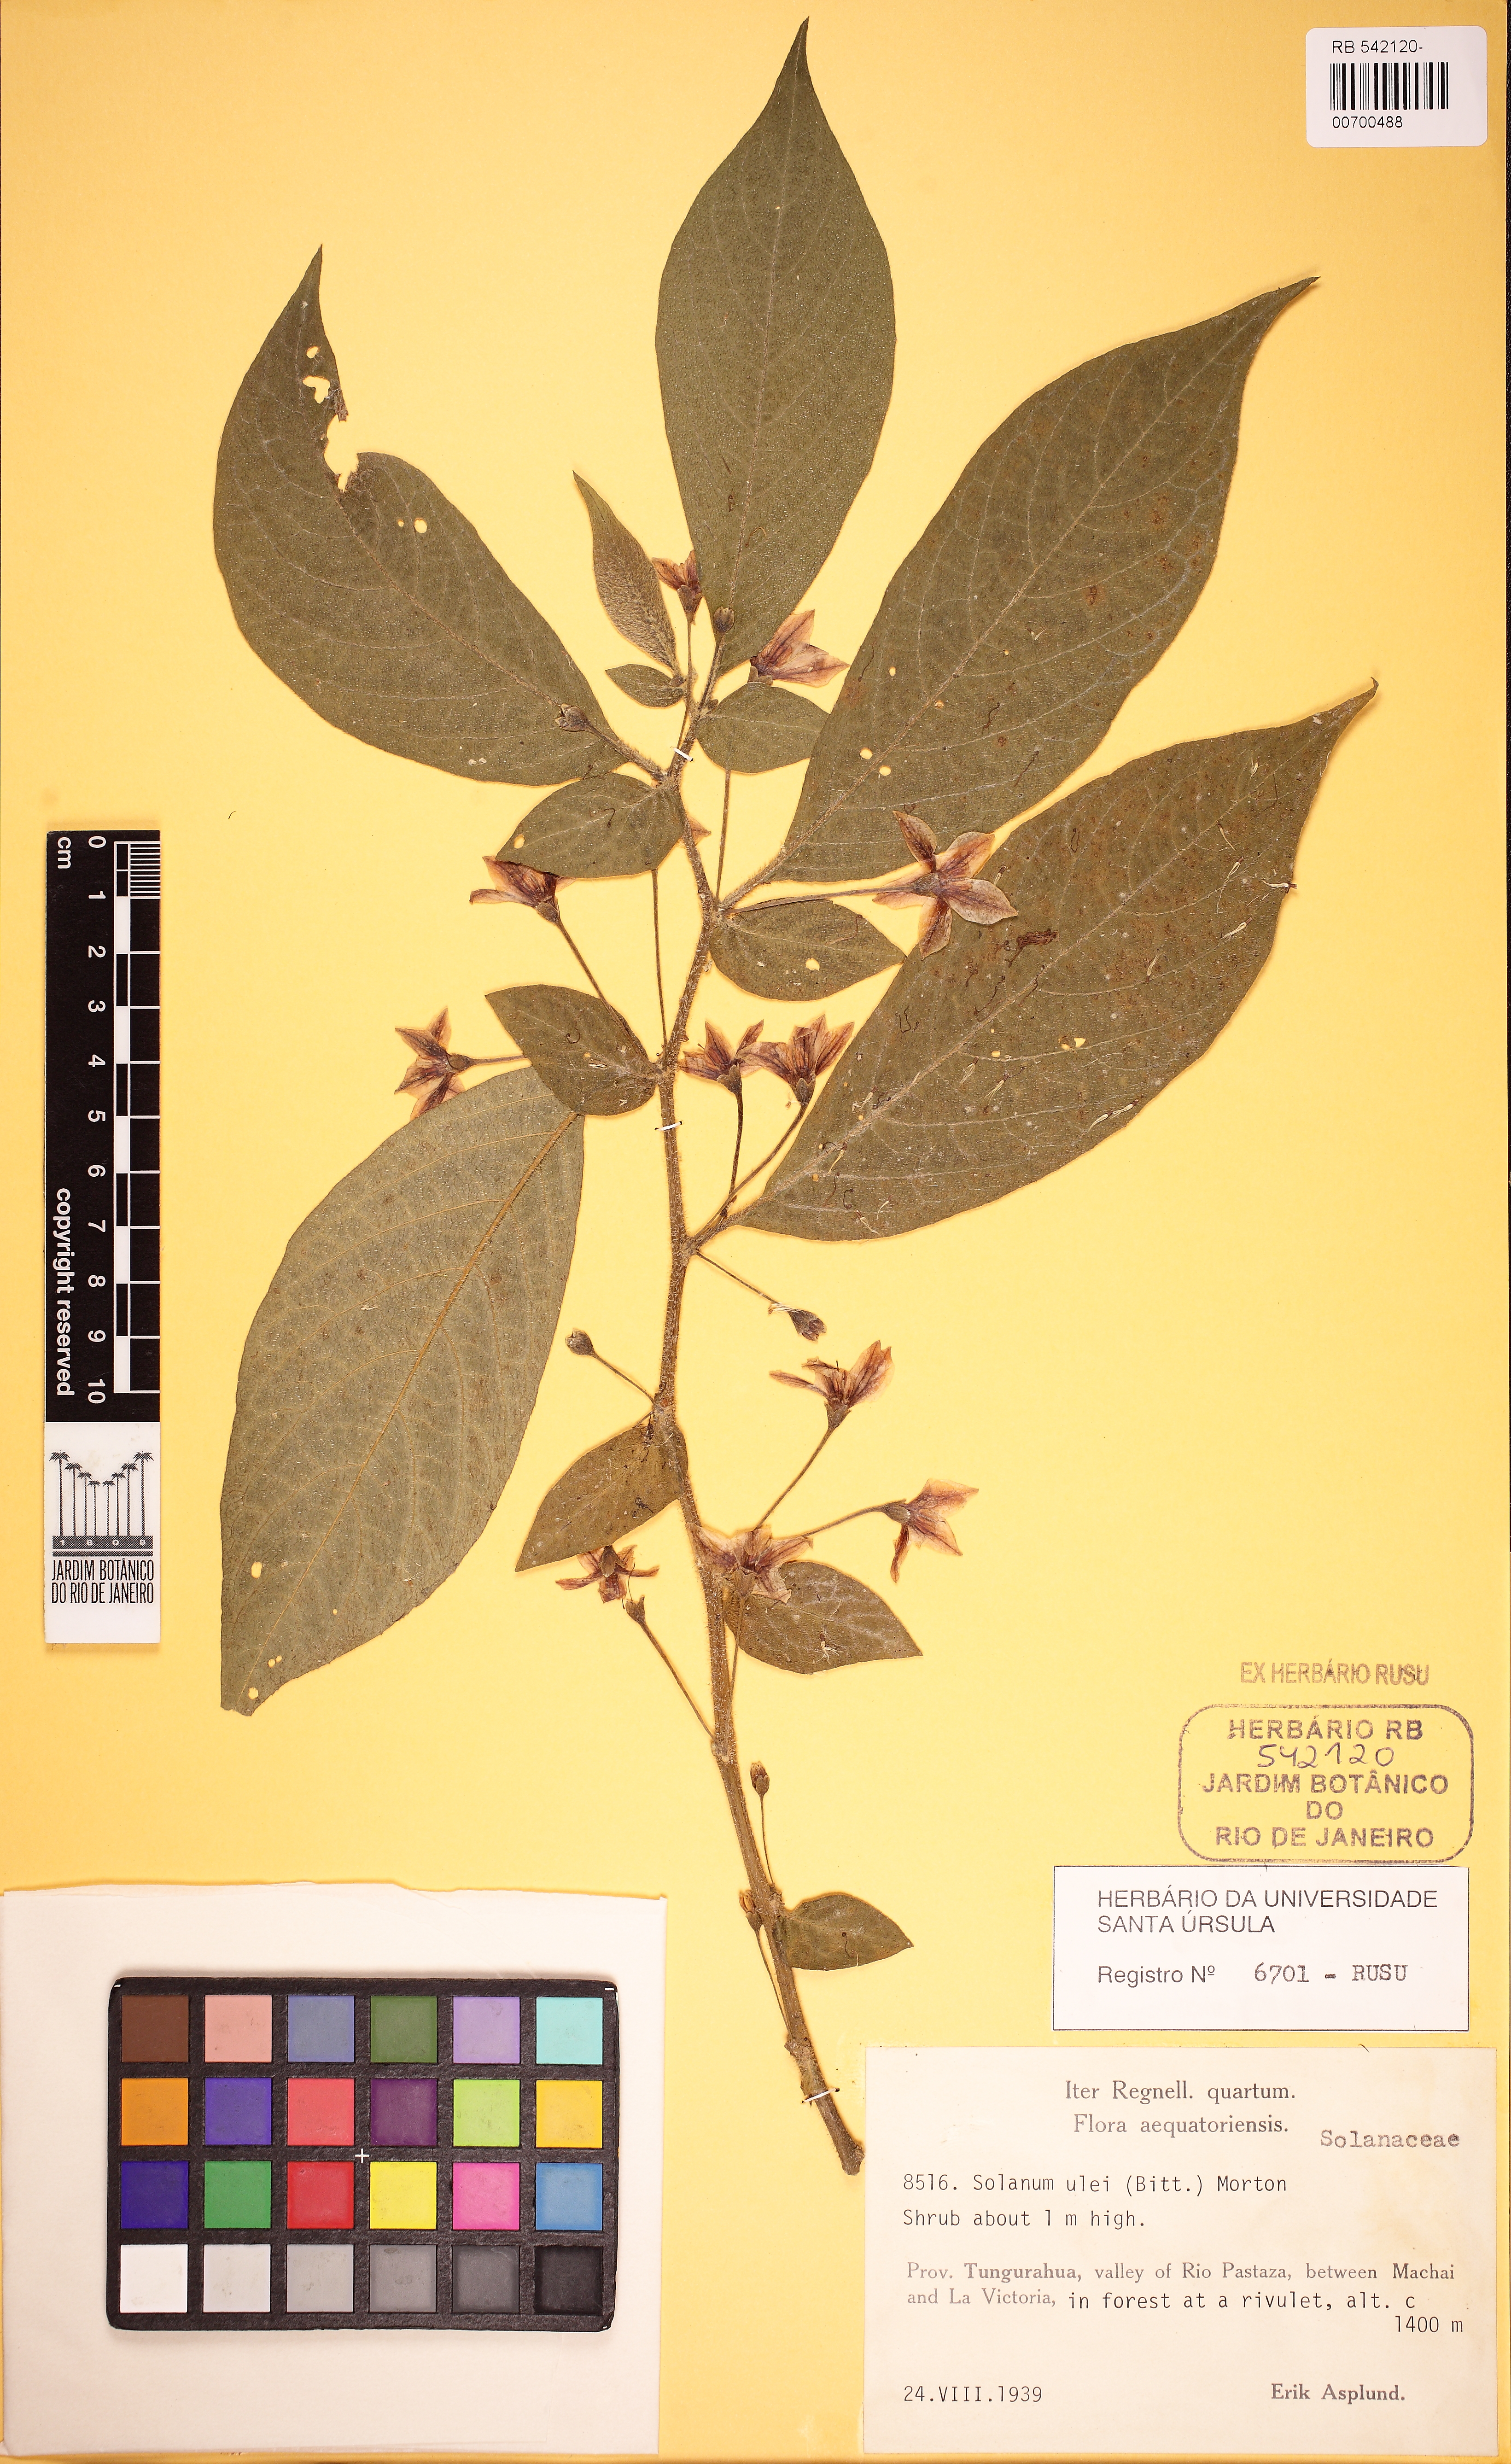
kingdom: Plantae
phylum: Tracheophyta
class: Magnoliopsida
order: Solanales
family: Solanaceae
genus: Lycianthes
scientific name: Lycianthes
